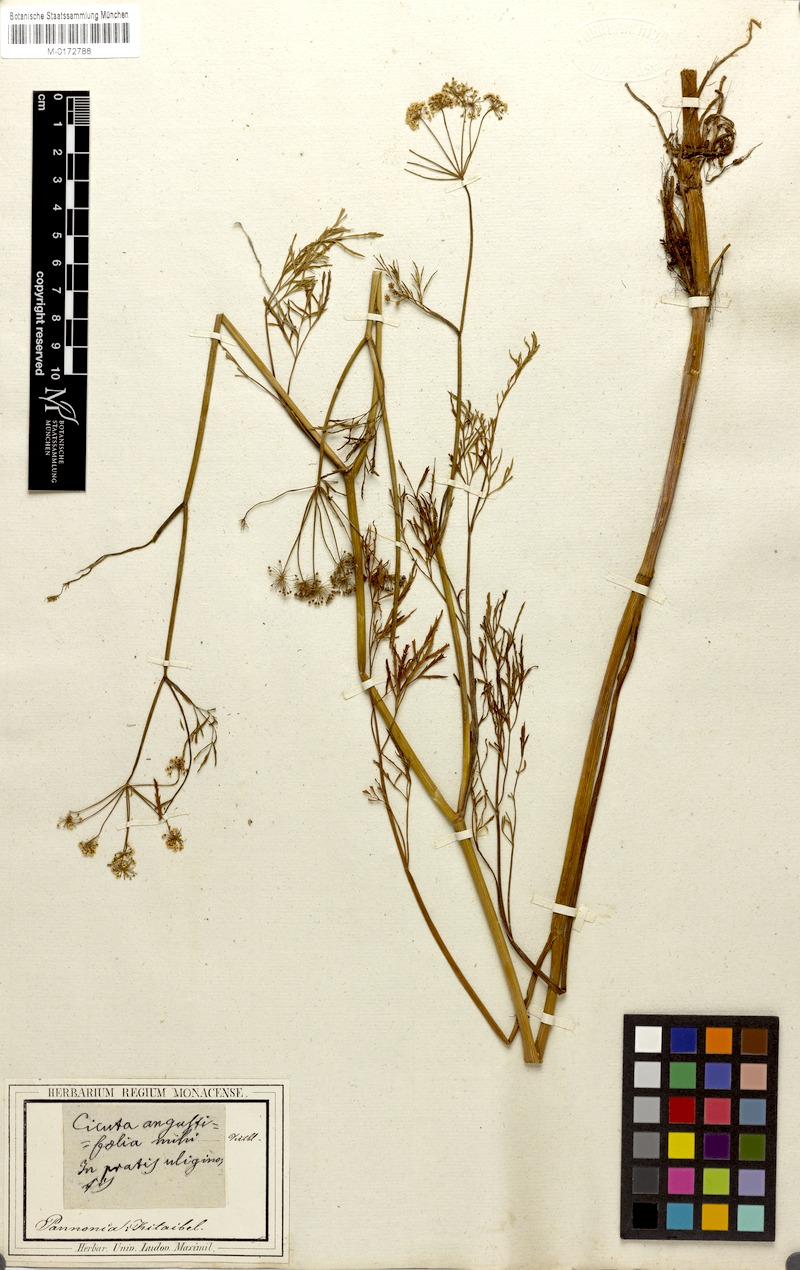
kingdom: Plantae
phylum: Tracheophyta
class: Magnoliopsida
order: Apiales
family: Apiaceae
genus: Cicuta
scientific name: Cicuta virosa
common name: Cowbane
